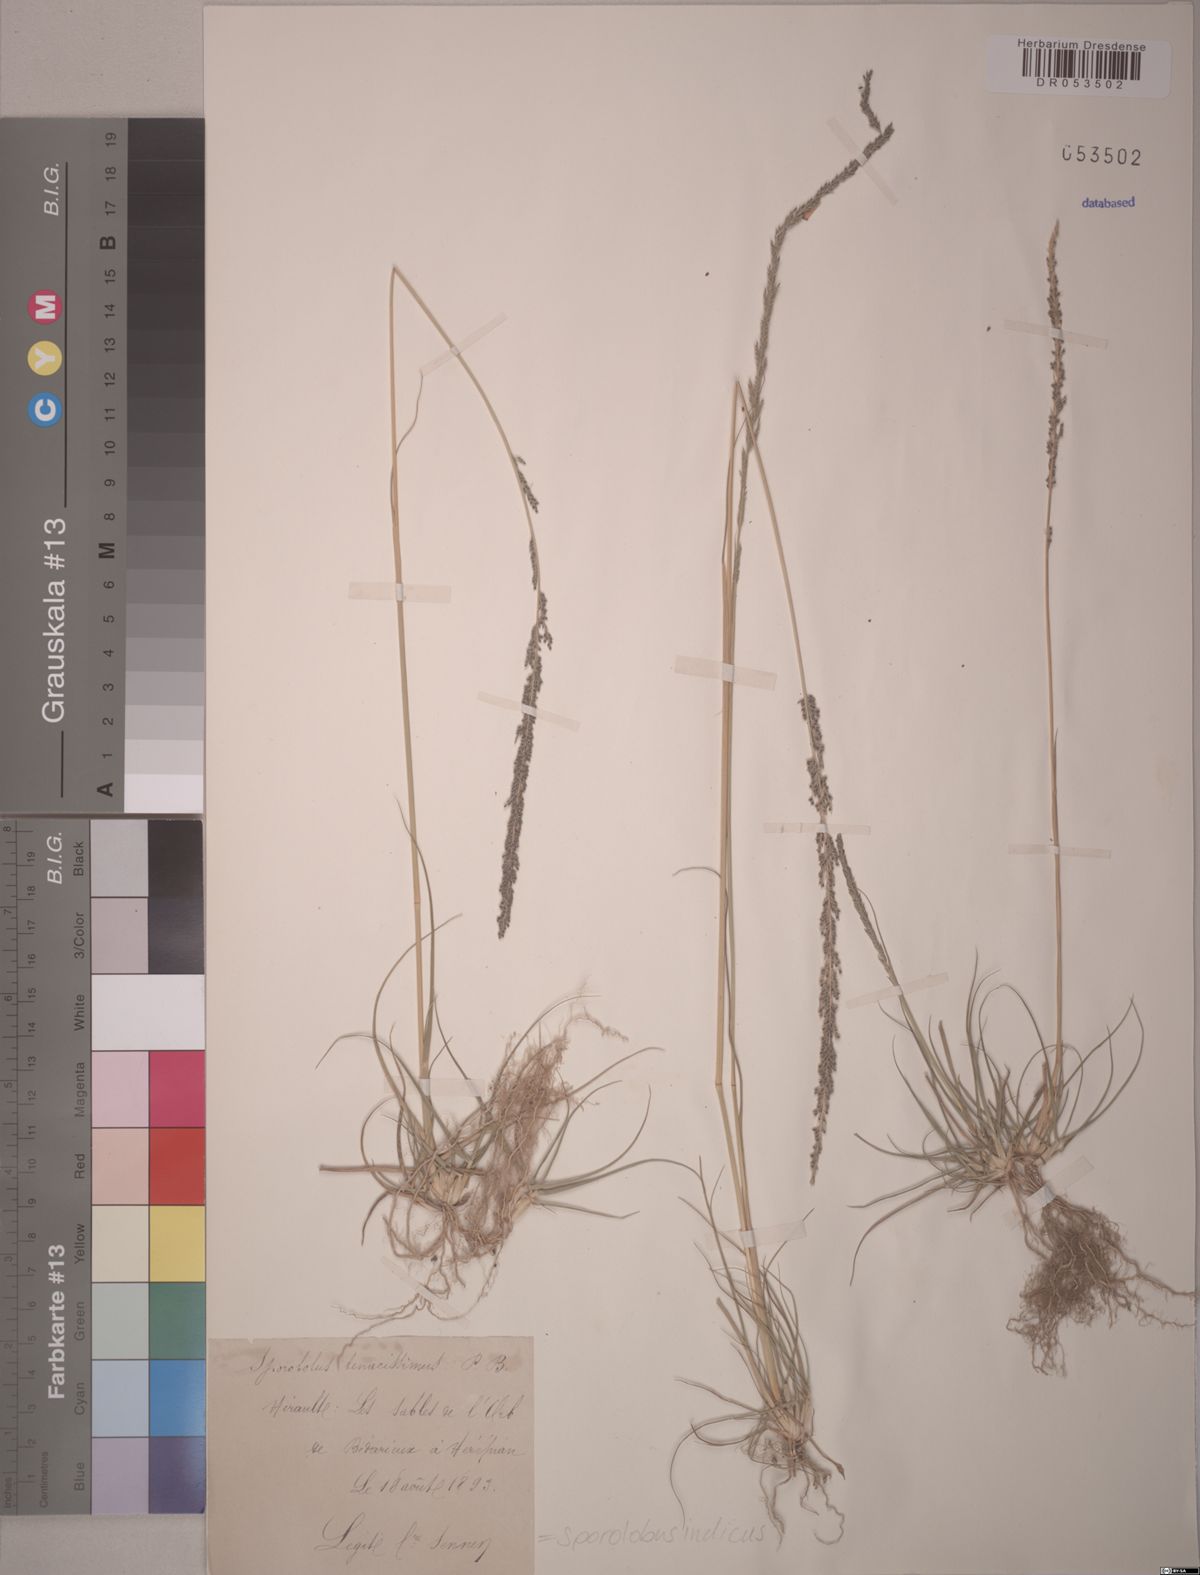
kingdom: Plantae
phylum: Tracheophyta
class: Liliopsida
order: Poales
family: Poaceae
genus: Sporobolus
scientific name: Sporobolus indicus
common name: Smut grass
